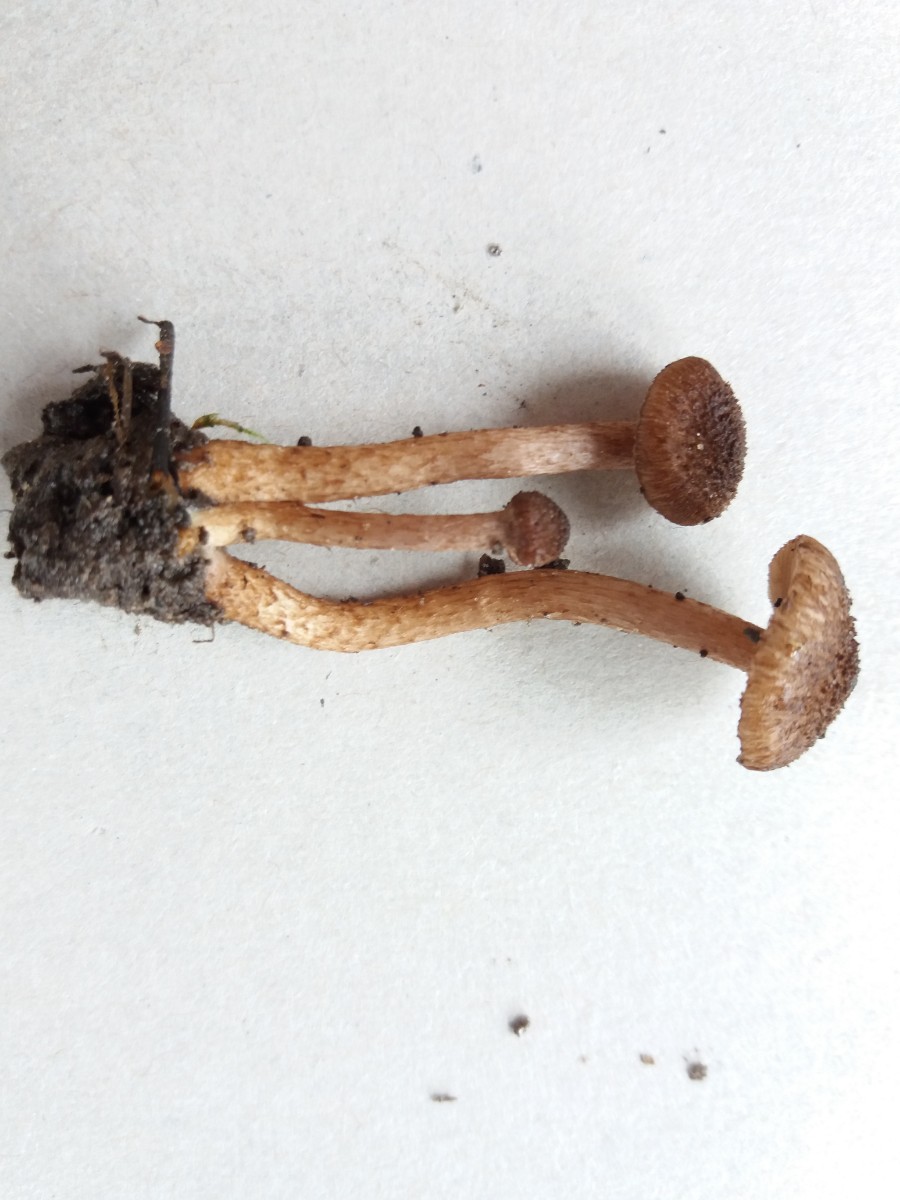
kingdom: Fungi
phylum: Basidiomycota
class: Agaricomycetes
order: Agaricales
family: Inocybaceae
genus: Inocybe
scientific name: Inocybe cincinnata
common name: lillabladet trævlhat
